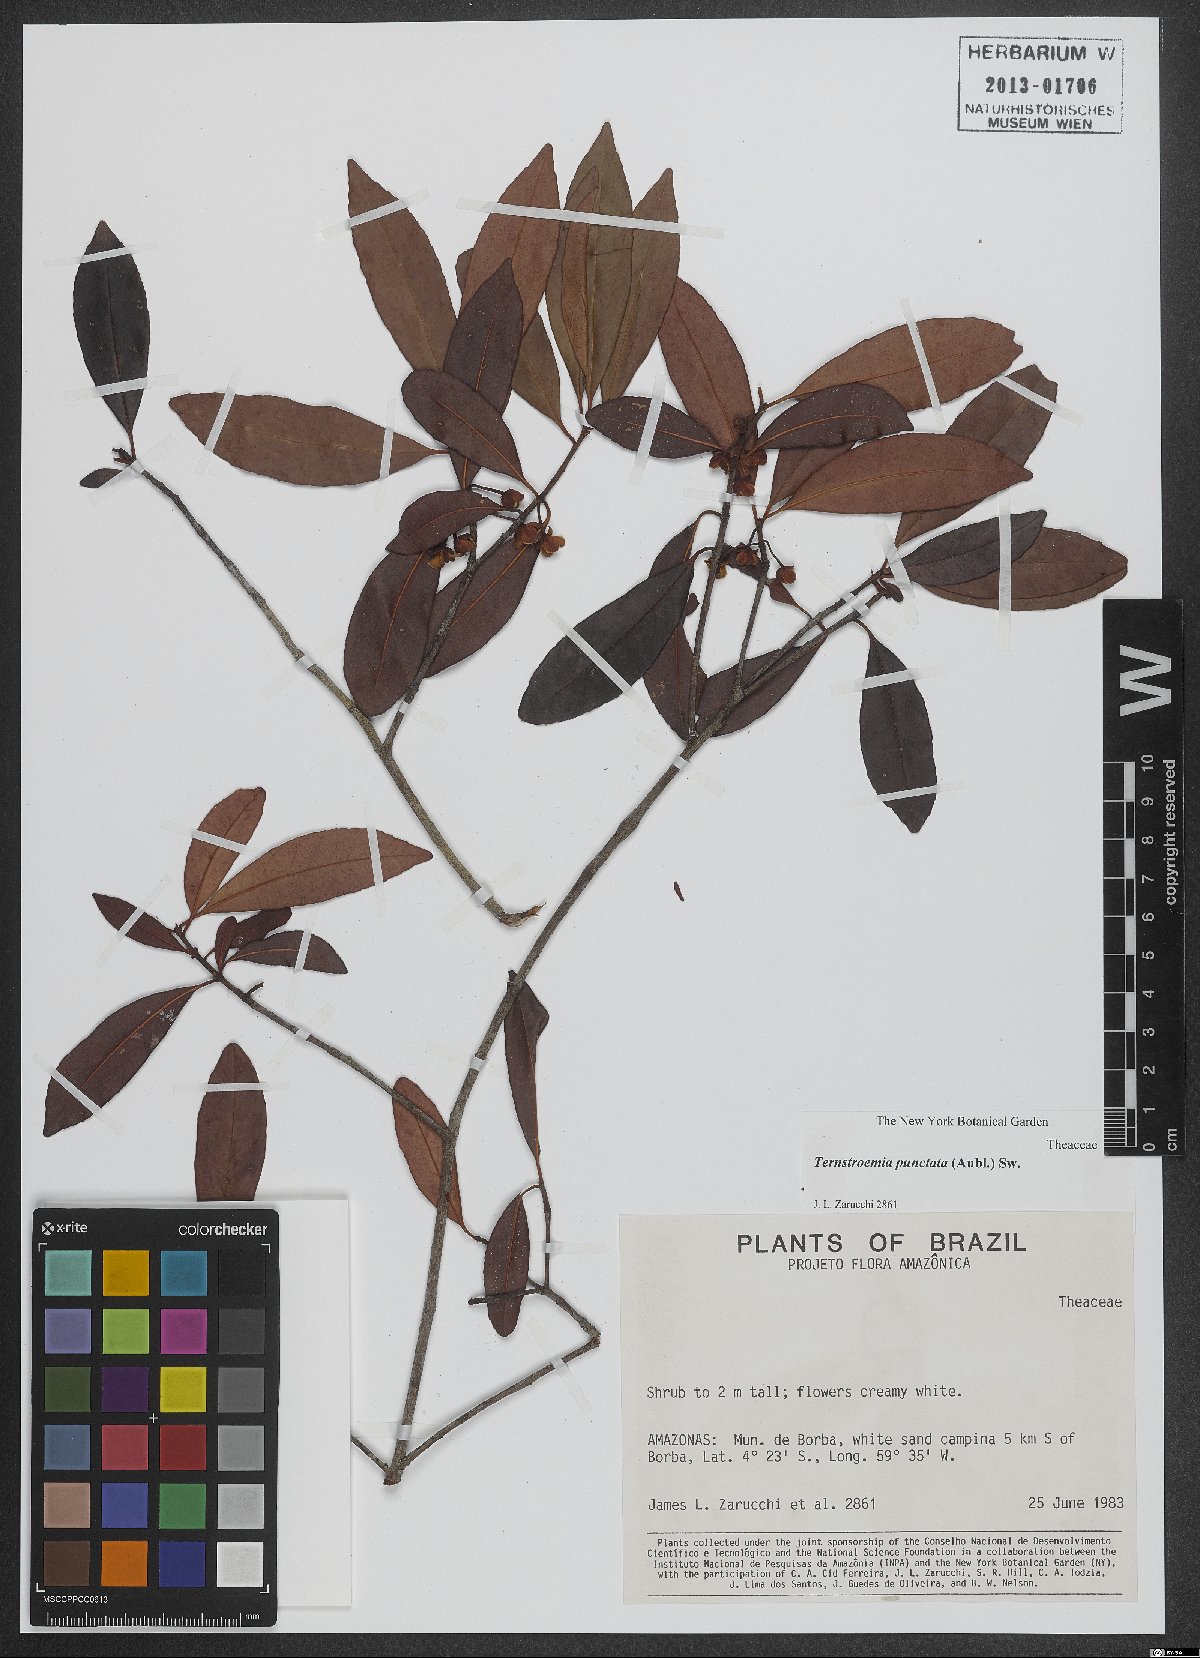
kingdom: Plantae
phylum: Tracheophyta
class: Magnoliopsida
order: Ericales
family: Pentaphylacaceae
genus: Ternstroemia
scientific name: Ternstroemia punctata
